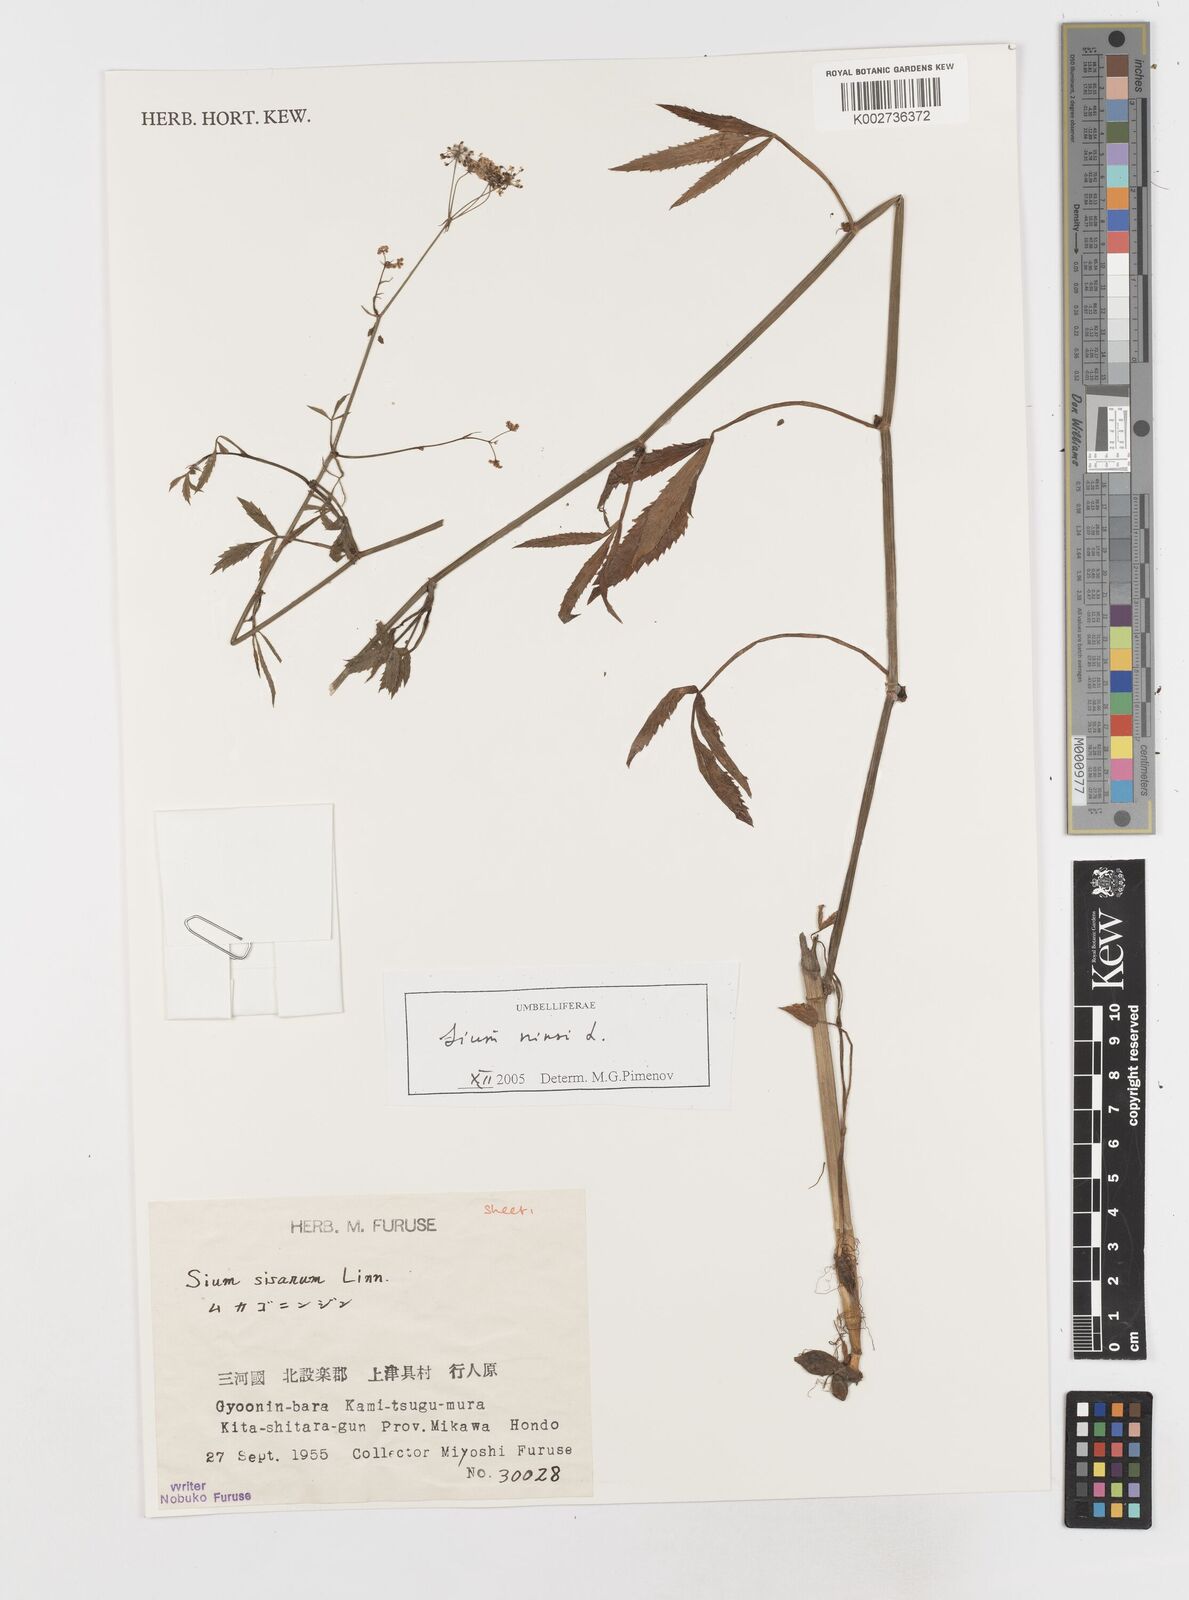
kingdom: Plantae
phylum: Tracheophyta
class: Magnoliopsida
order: Apiales
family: Apiaceae
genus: Sium
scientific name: Sium ninsi
